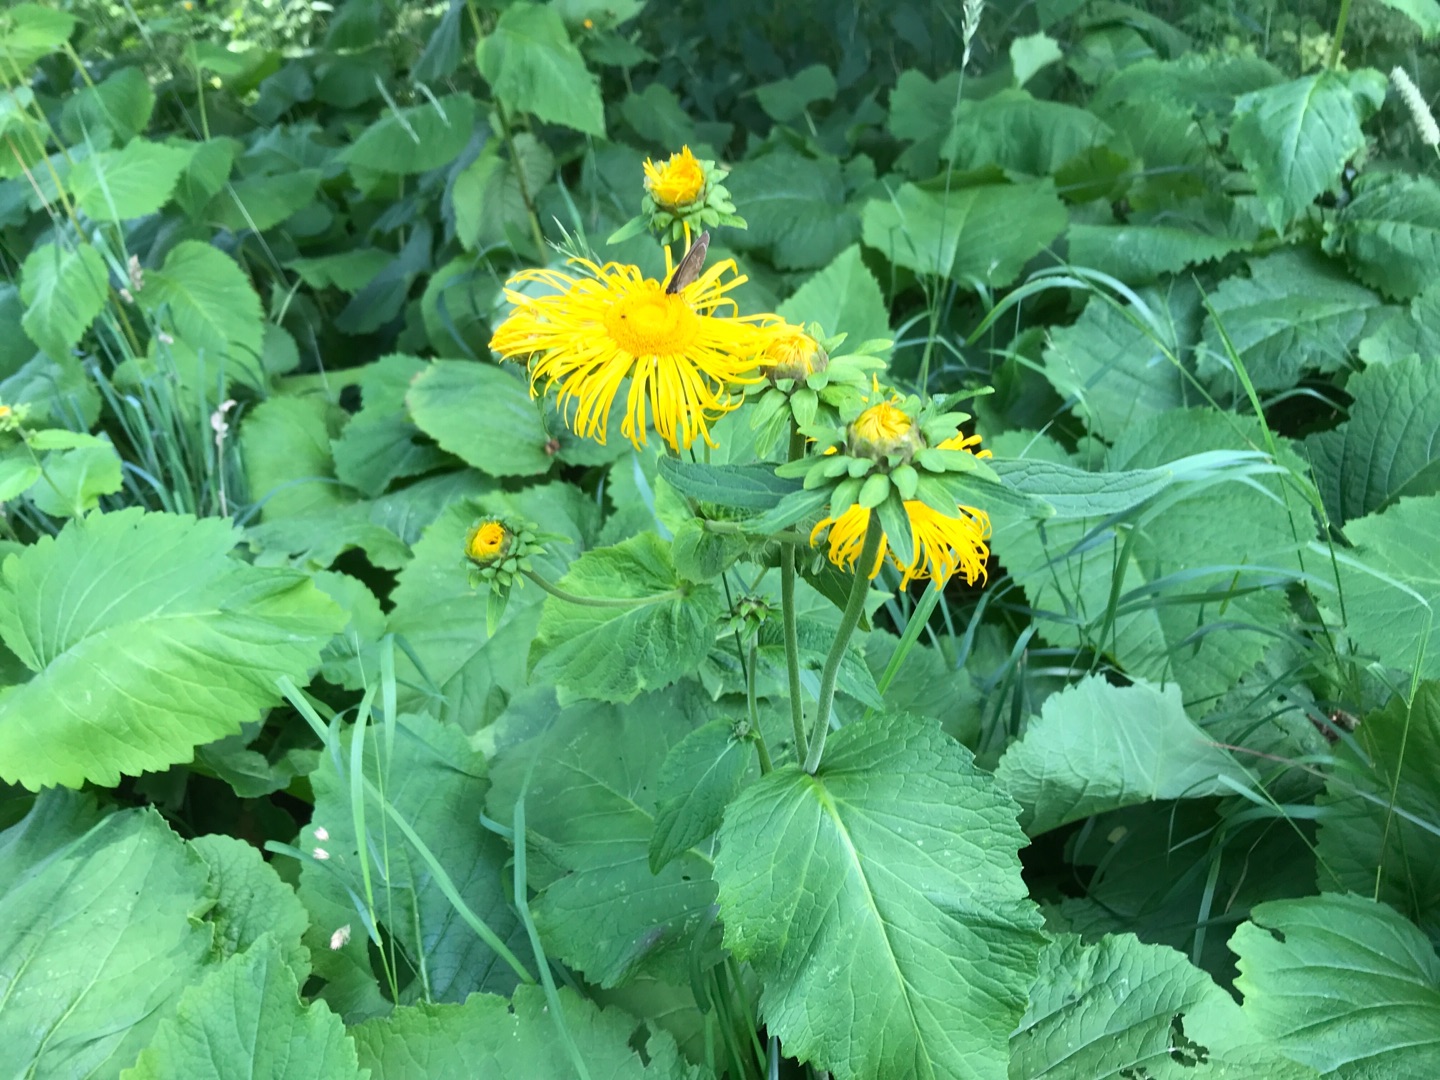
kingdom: Plantae
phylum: Tracheophyta
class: Magnoliopsida
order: Asterales
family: Asteraceae
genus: Telekia
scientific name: Telekia speciosa
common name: Tusindstråle
